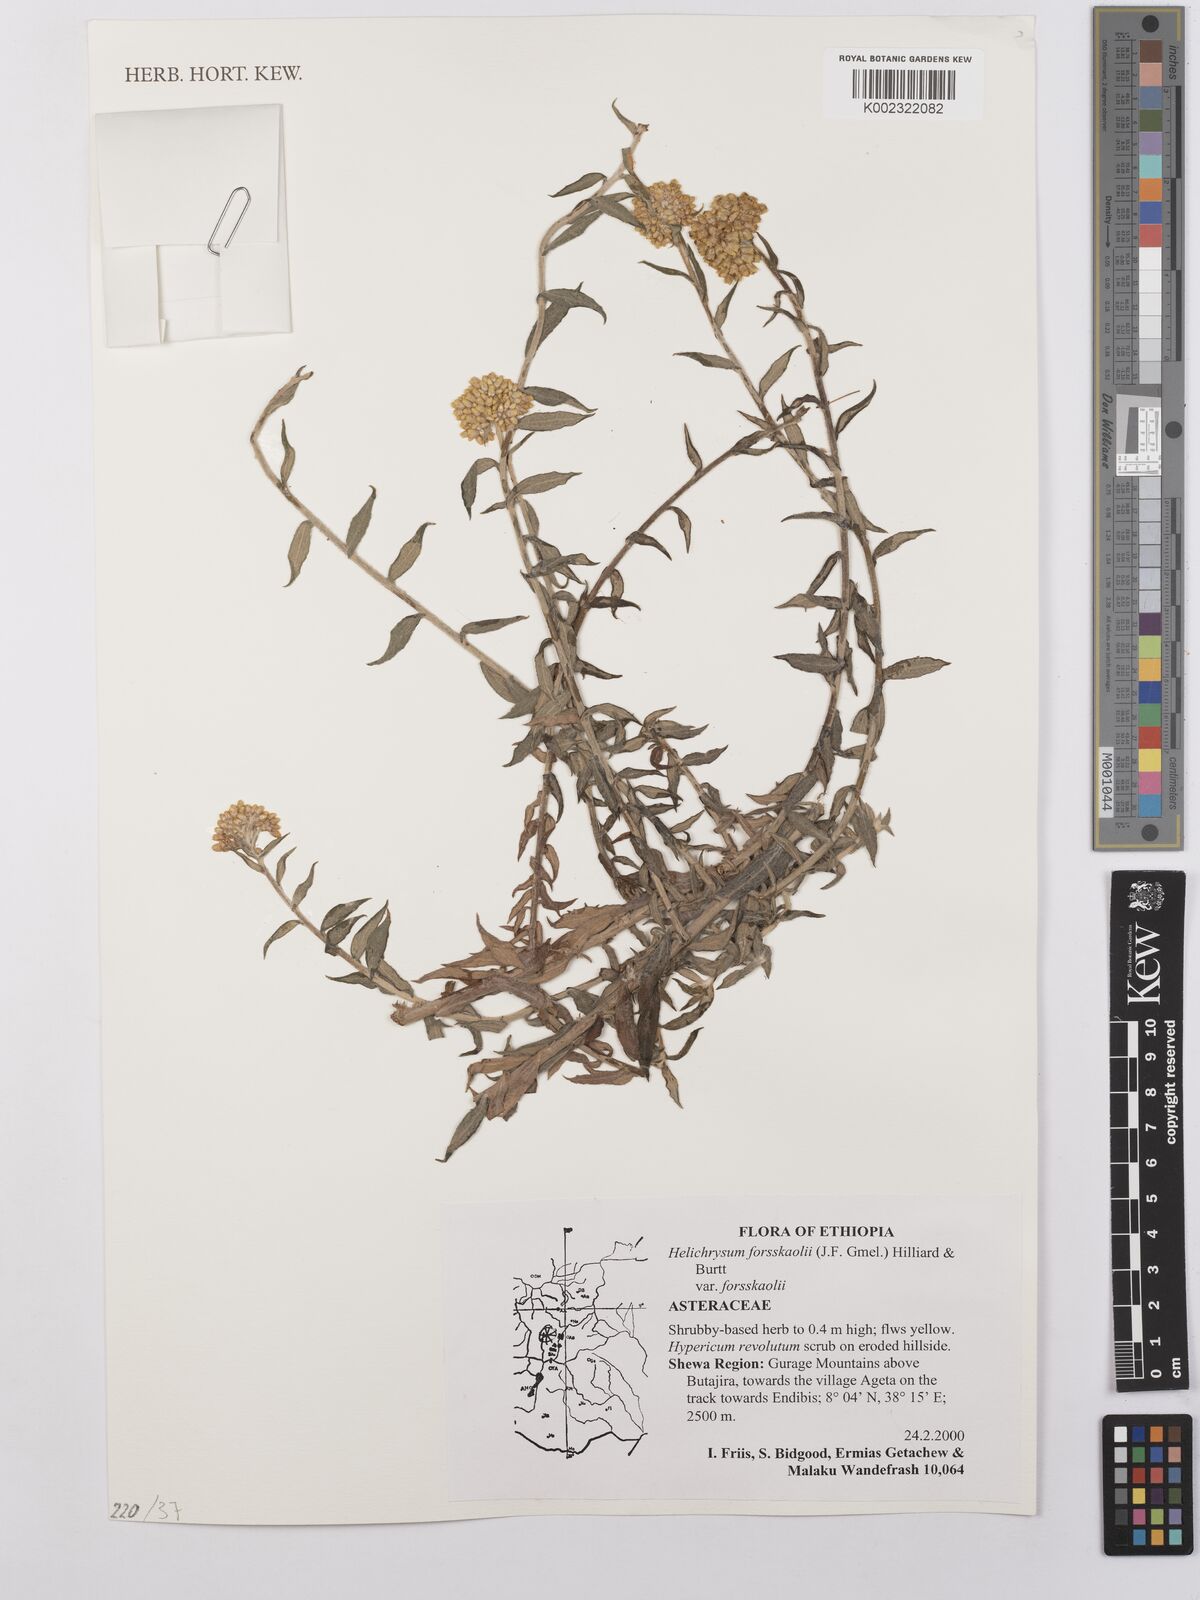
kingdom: Plantae
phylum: Tracheophyta
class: Magnoliopsida
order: Asterales
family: Asteraceae
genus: Helichrysum
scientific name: Helichrysum forskahlii
